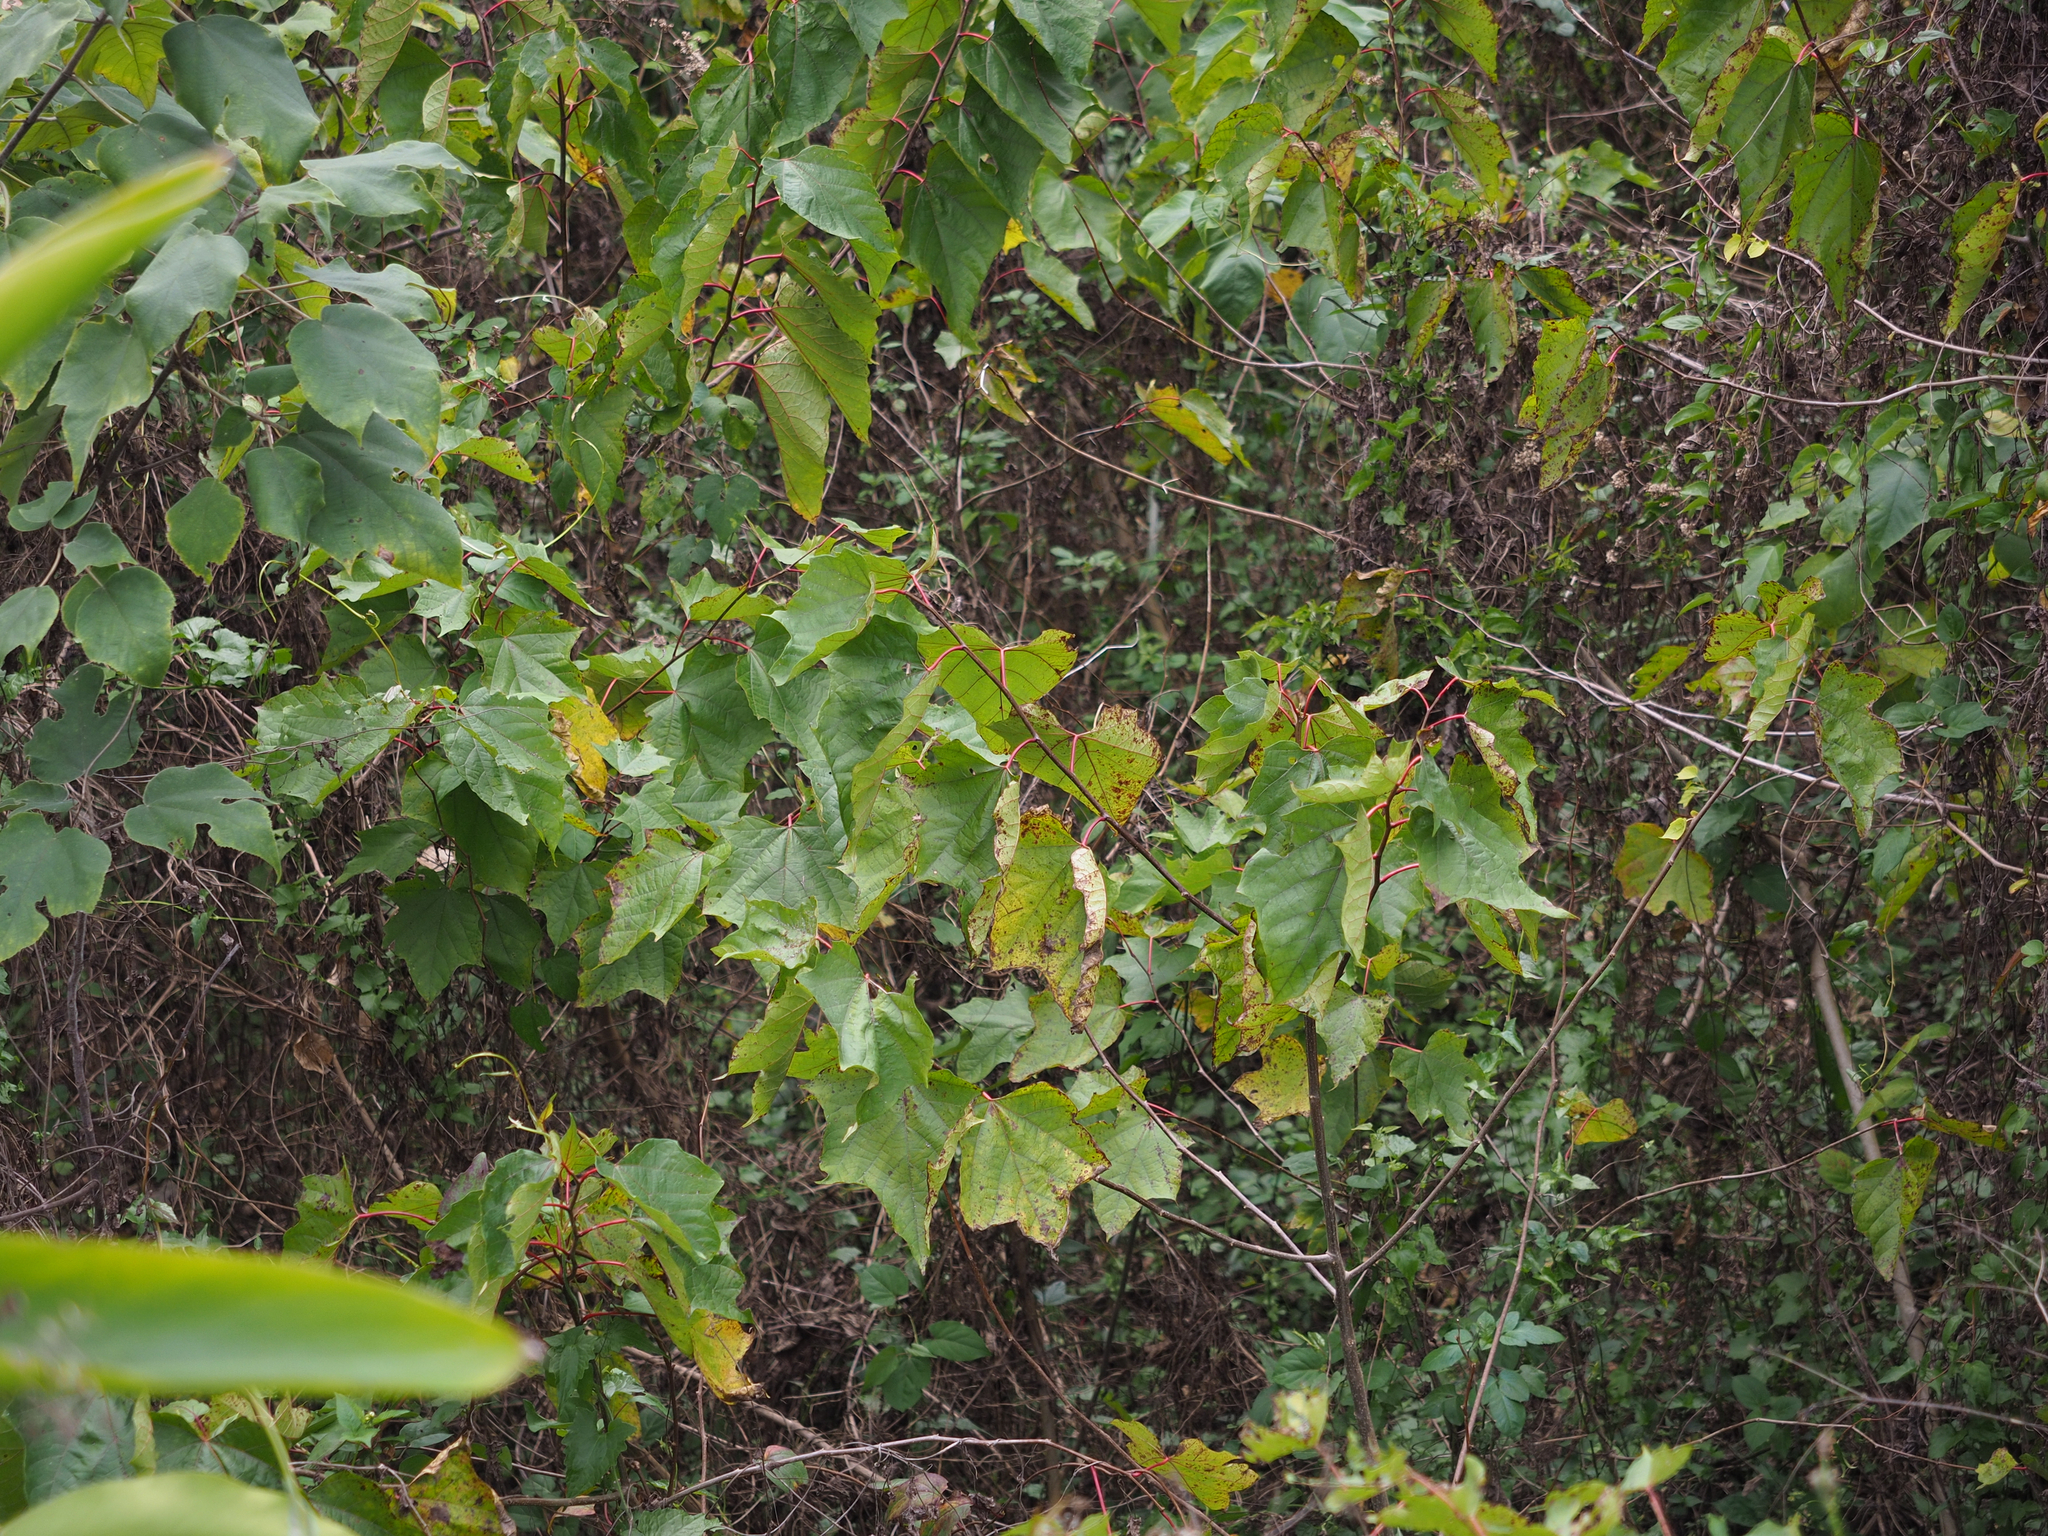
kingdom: Plantae
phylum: Tracheophyta
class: Magnoliopsida
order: Cornales
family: Cornaceae
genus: Alangium
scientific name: Alangium chinense
